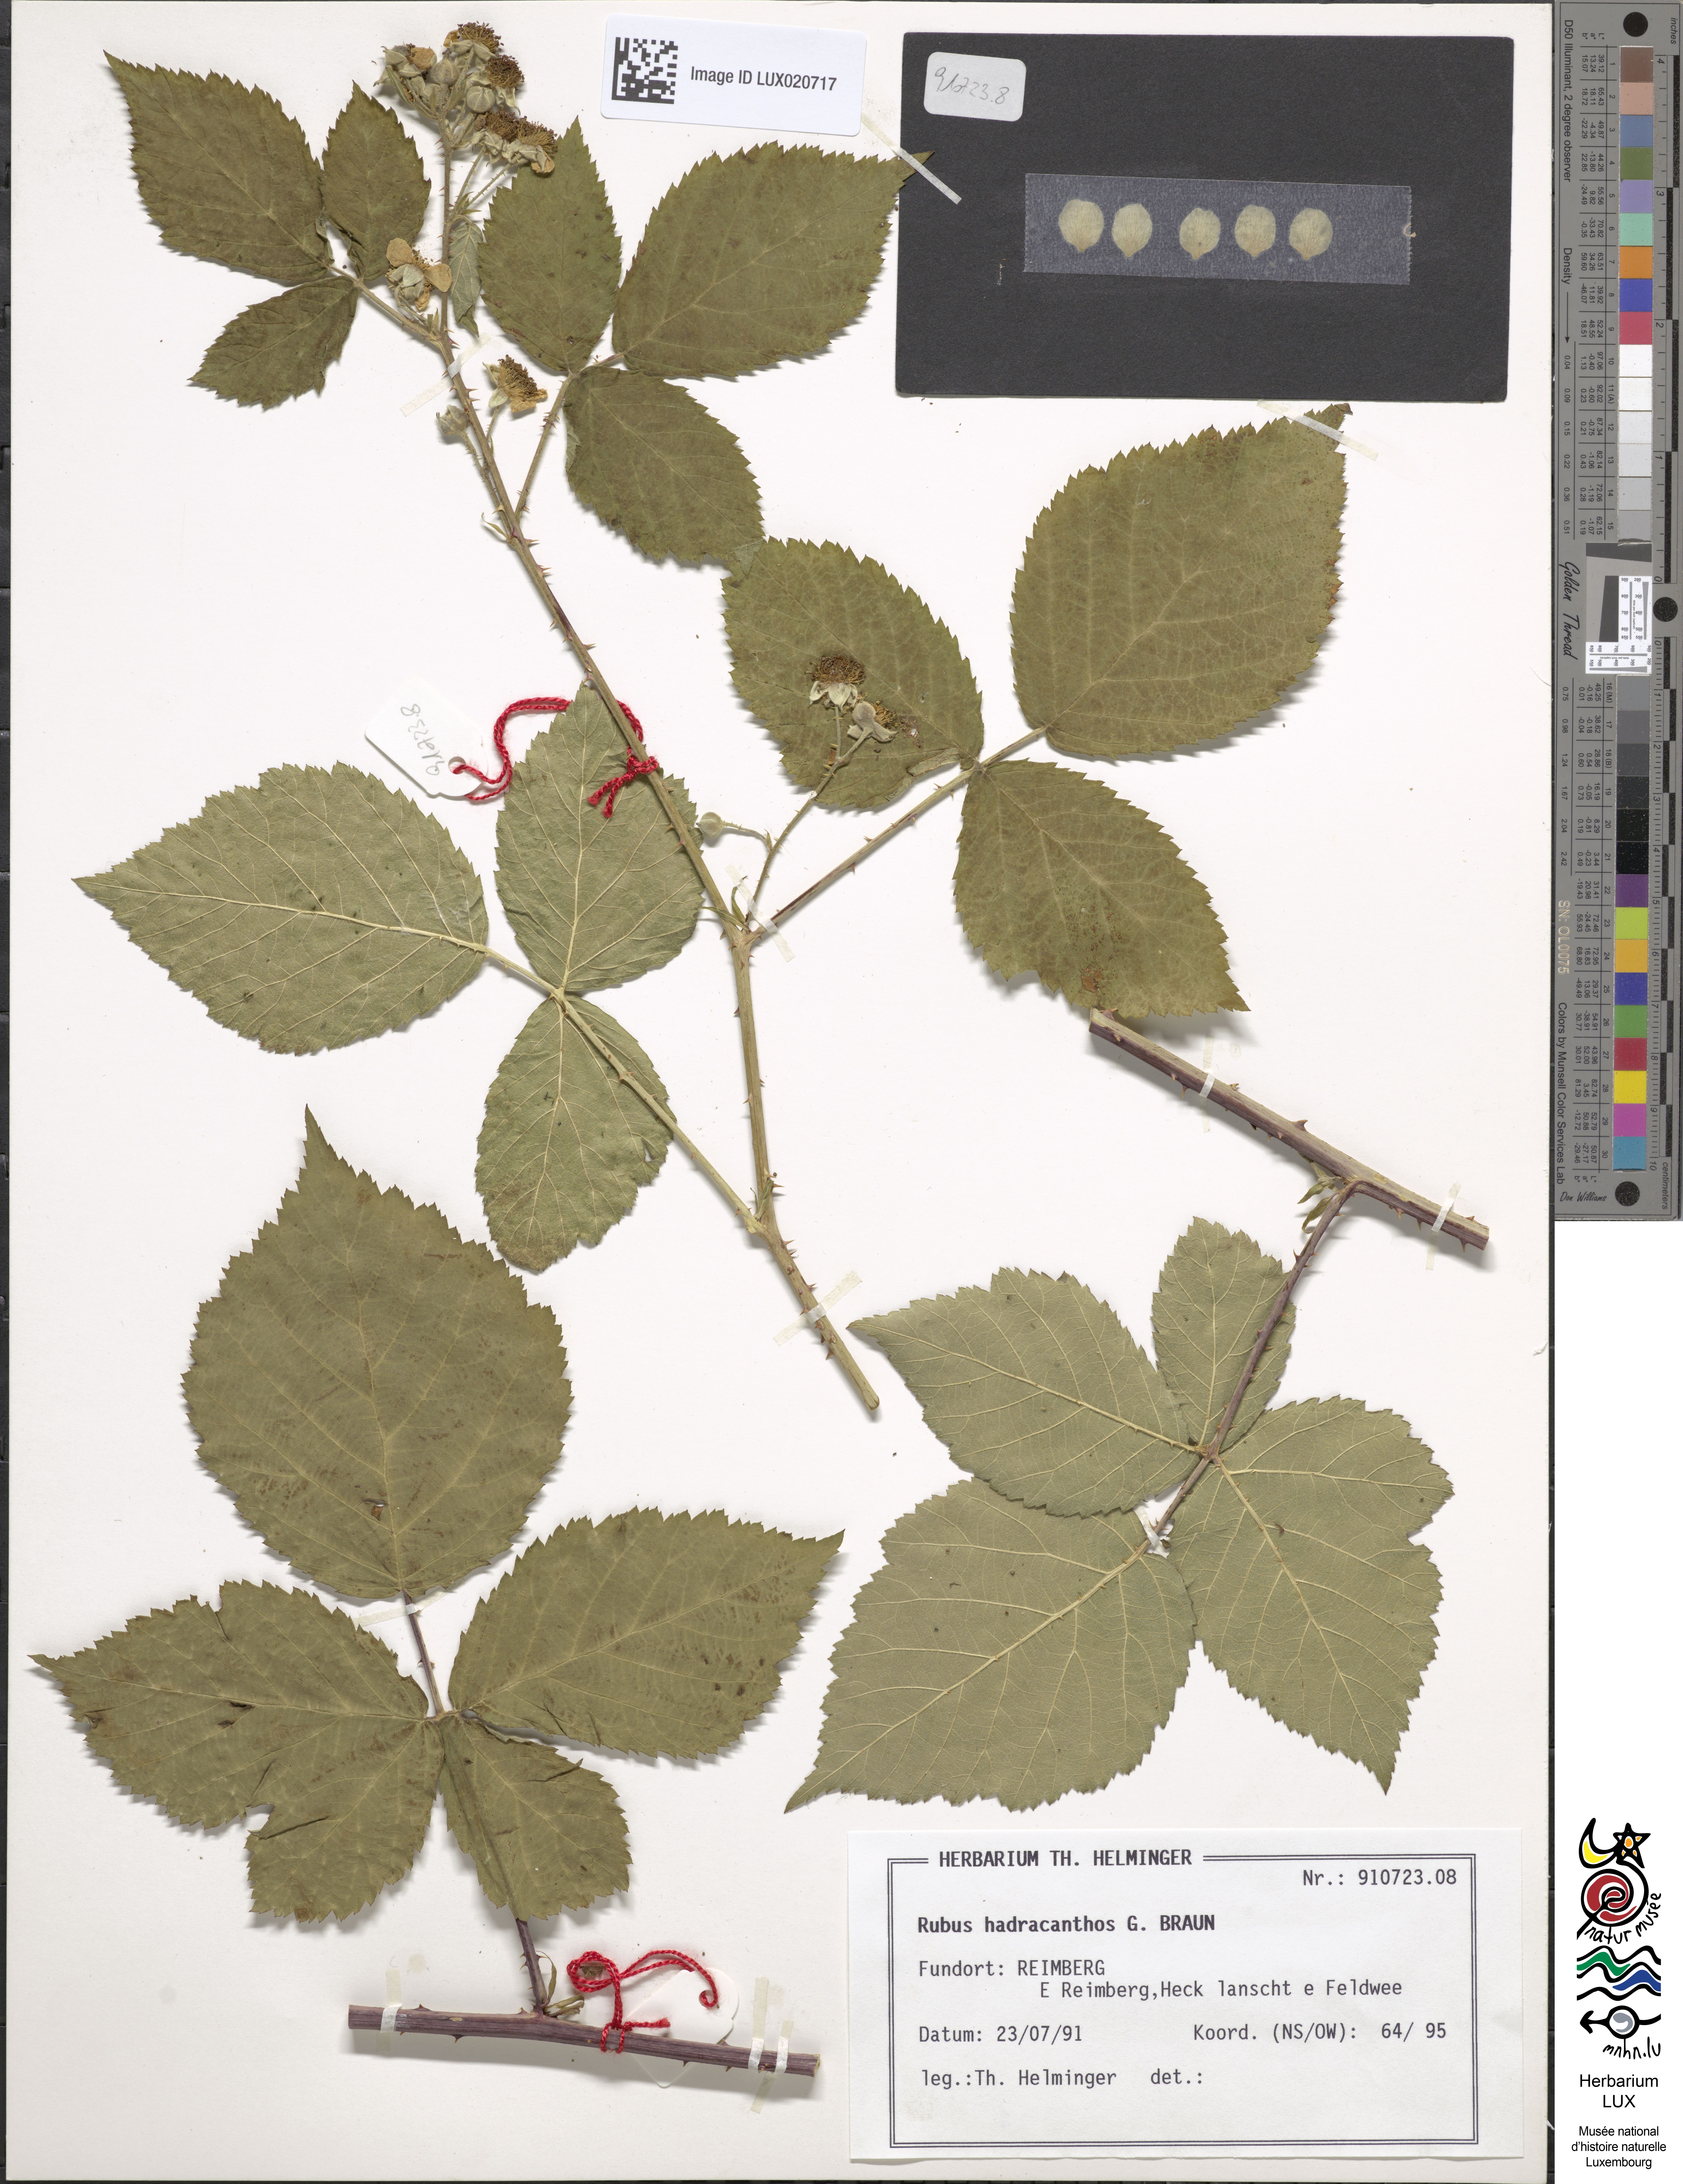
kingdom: Plantae
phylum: Tracheophyta
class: Magnoliopsida
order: Rosales
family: Rosaceae
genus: Rubus
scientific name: Rubus hadracanthos
